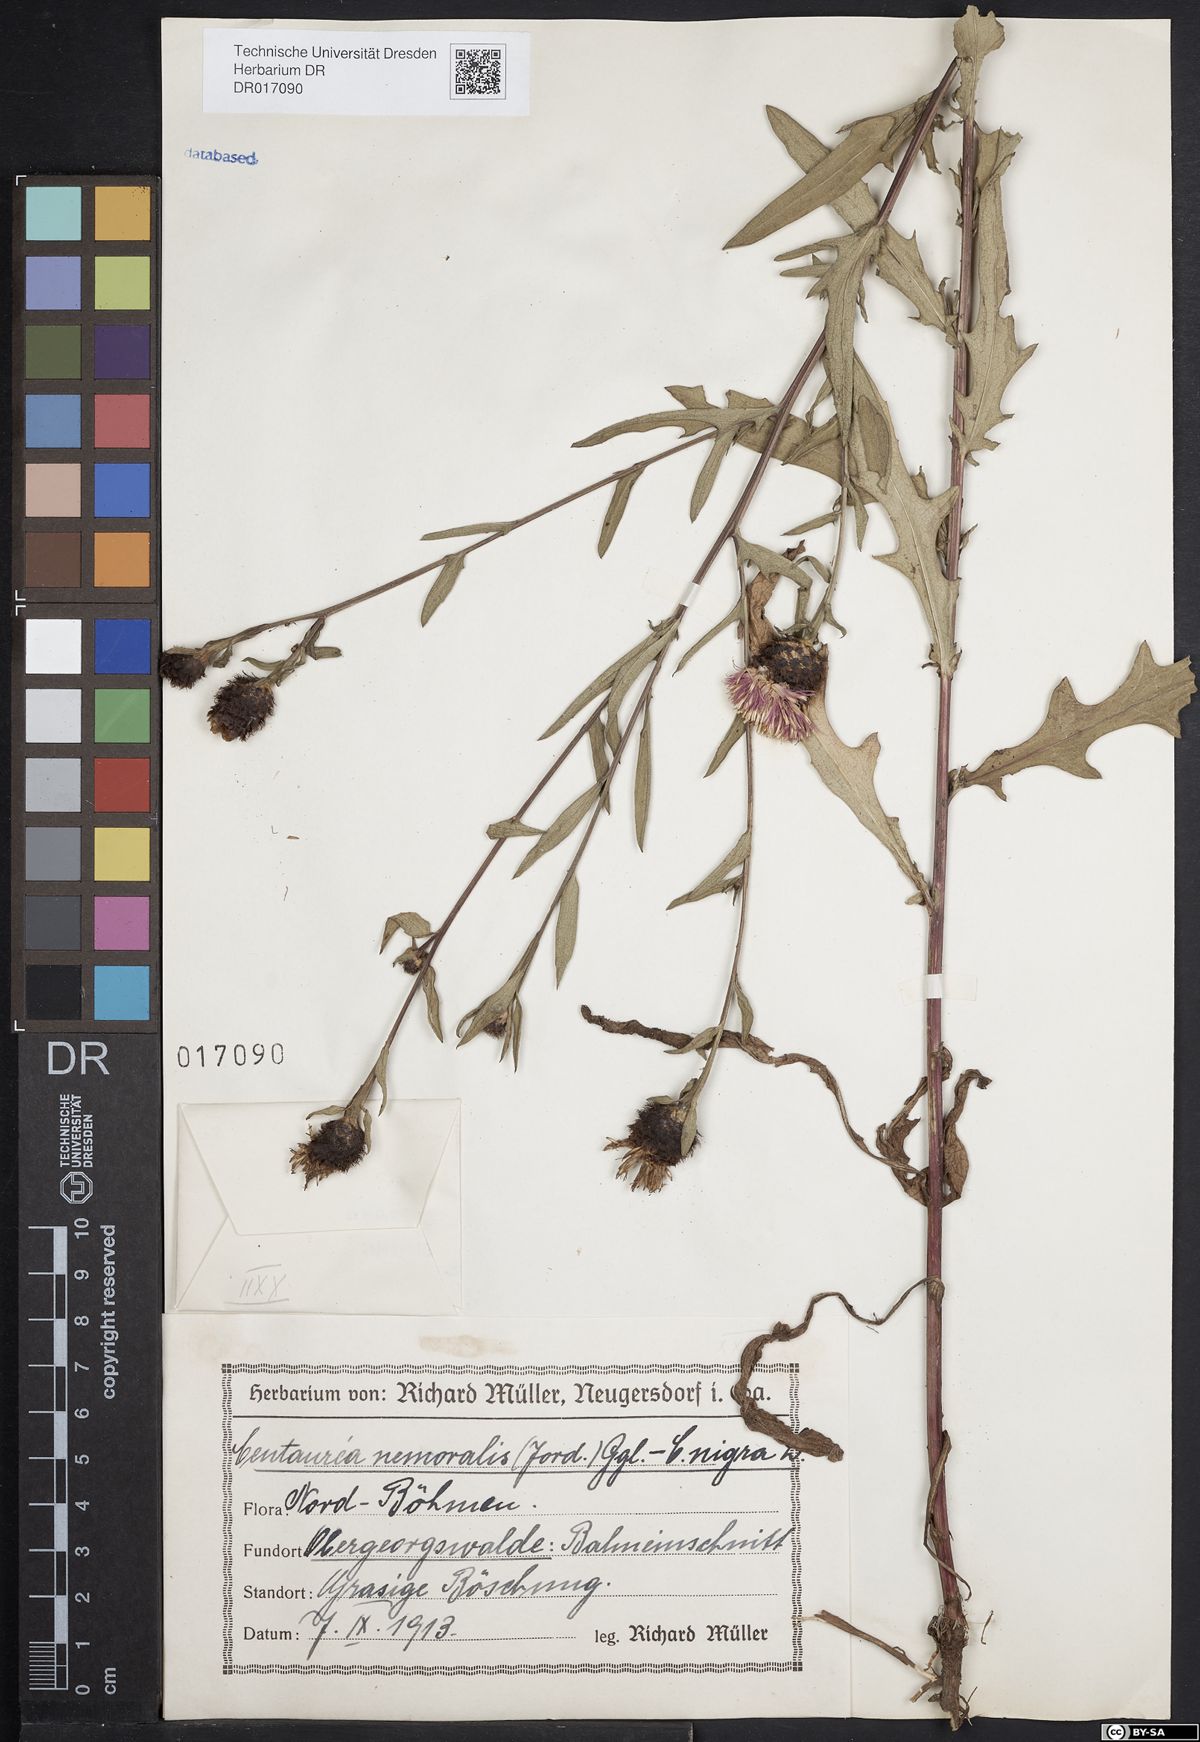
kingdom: Plantae
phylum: Tracheophyta
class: Magnoliopsida
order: Asterales
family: Asteraceae
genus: Centaurea
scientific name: Centaurea nigra
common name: Lesser knapweed
